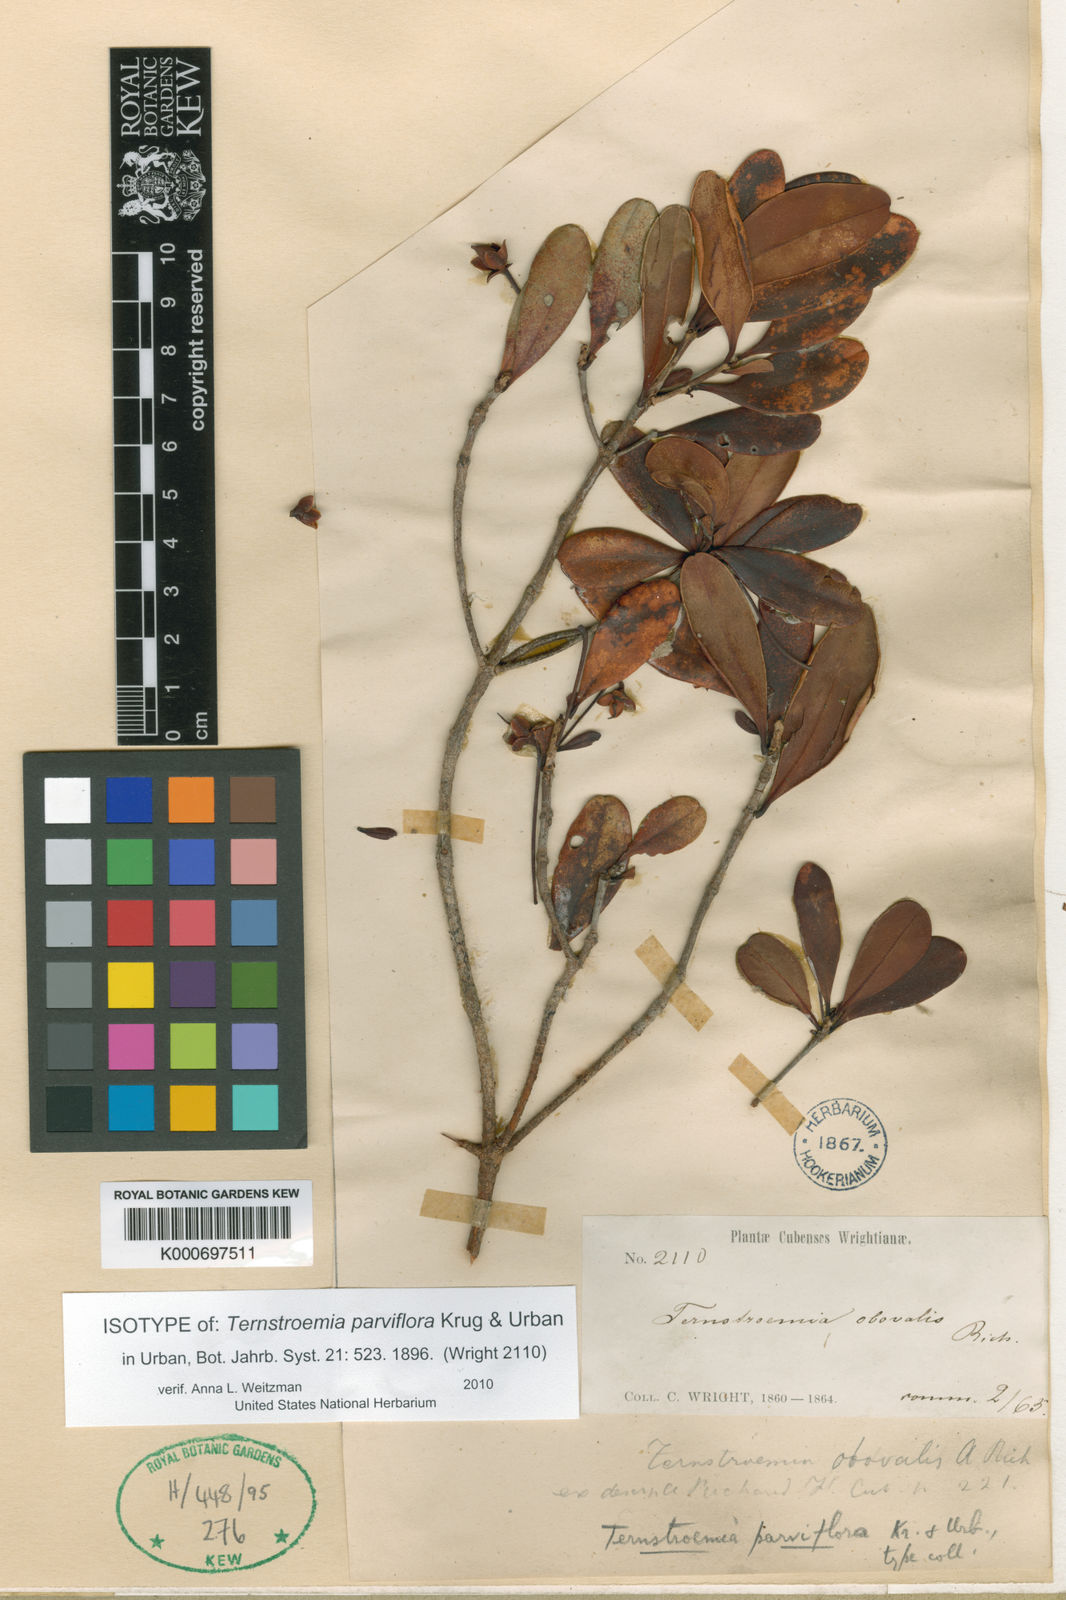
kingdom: Plantae
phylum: Tracheophyta
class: Magnoliopsida
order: Ericales
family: Pentaphylacaceae
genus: Ternstroemia
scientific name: Ternstroemia
